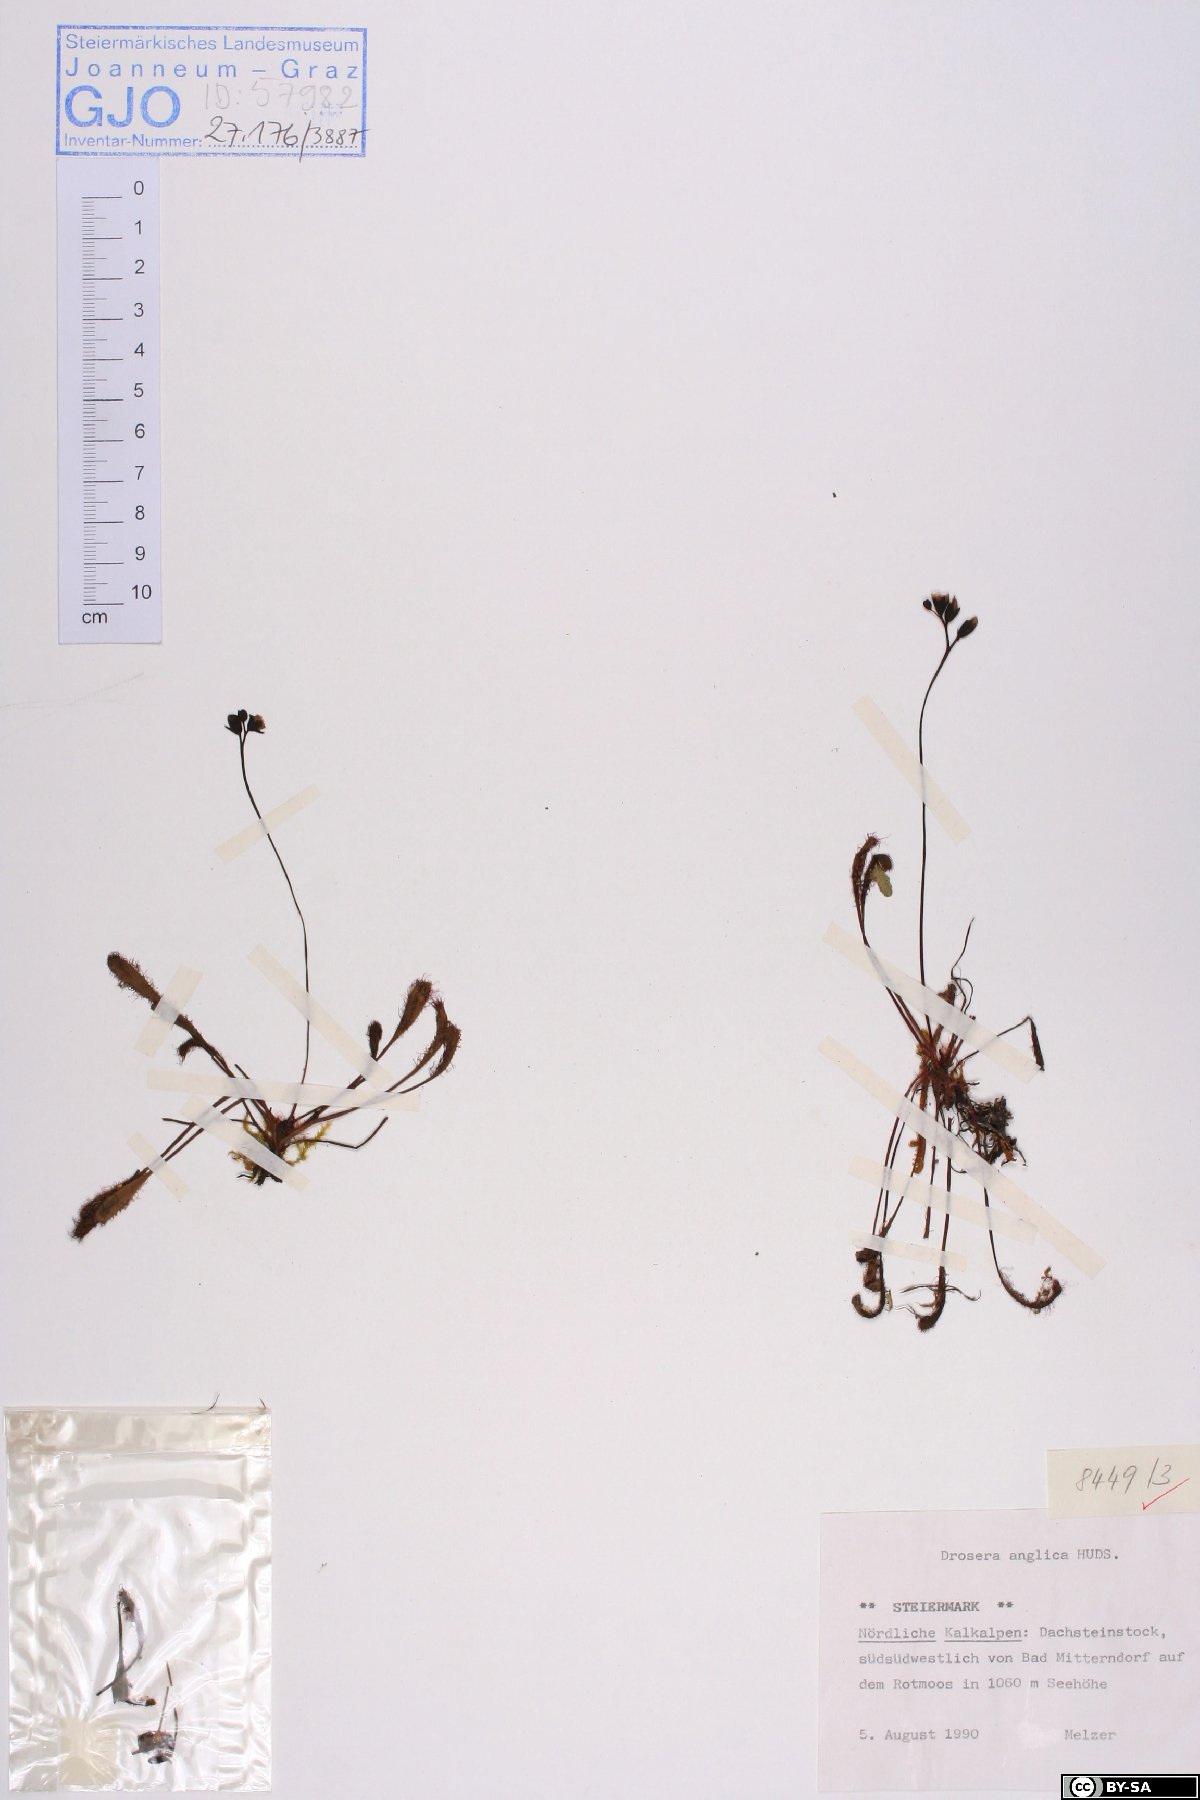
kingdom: Plantae
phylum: Tracheophyta
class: Magnoliopsida
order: Caryophyllales
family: Droseraceae
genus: Drosera
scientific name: Drosera anglica
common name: Great sundew
